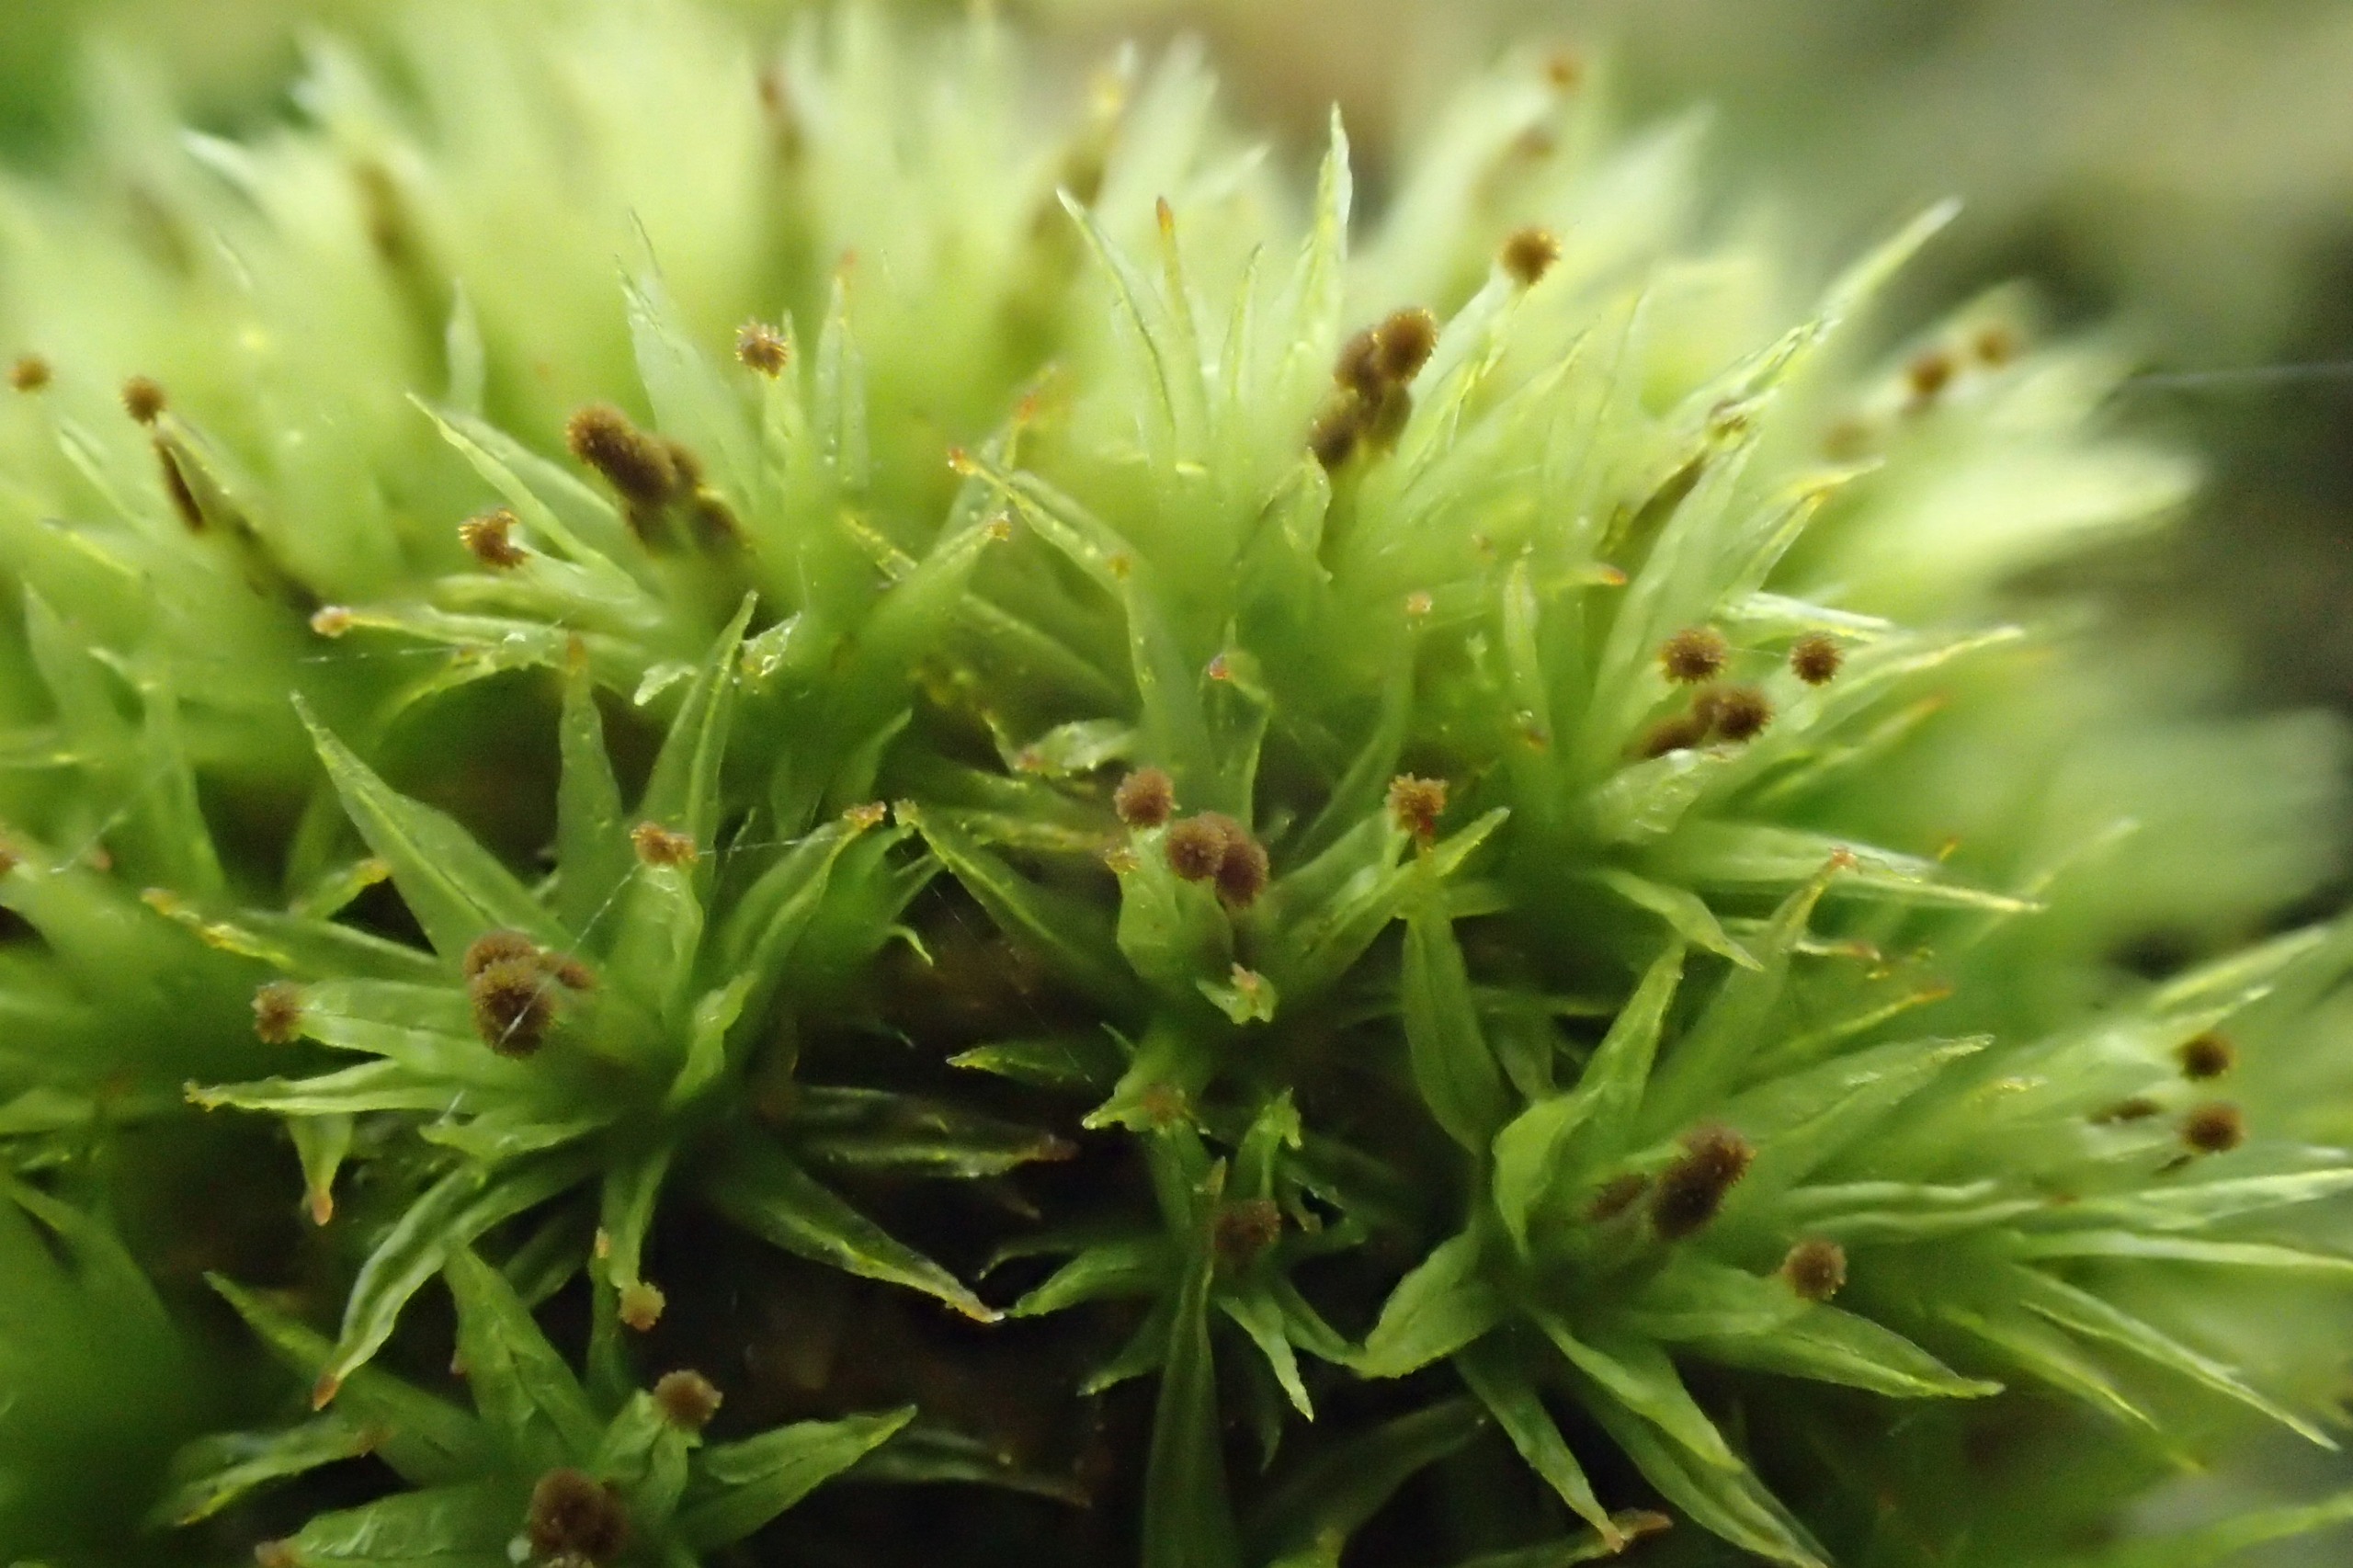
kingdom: Plantae
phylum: Bryophyta
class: Bryopsida
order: Orthotrichales
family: Orthotrichaceae
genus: Plenogemma
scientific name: Plenogemma phyllantha
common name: Stor låddenhætte
